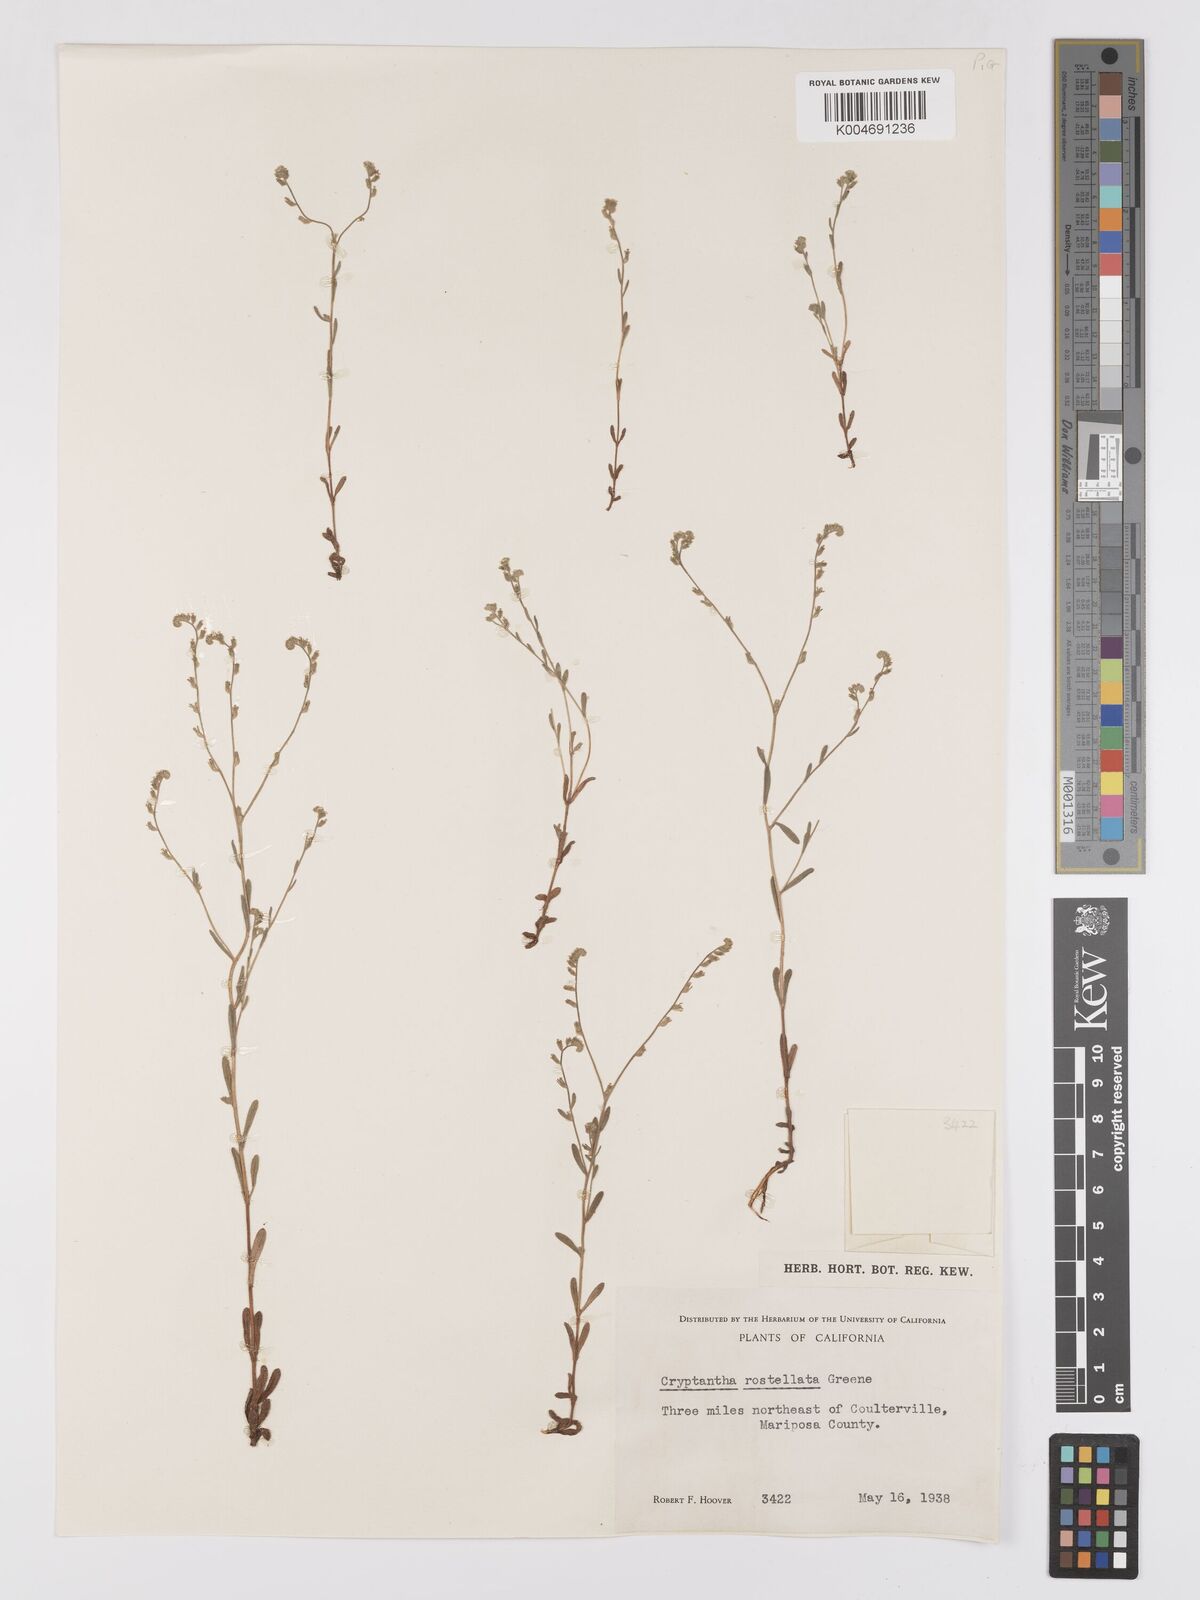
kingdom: Plantae
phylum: Tracheophyta
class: Magnoliopsida
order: Boraginales
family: Boraginaceae
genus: Cryptantha
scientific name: Cryptantha rostellata
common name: Beaked cryptantha
